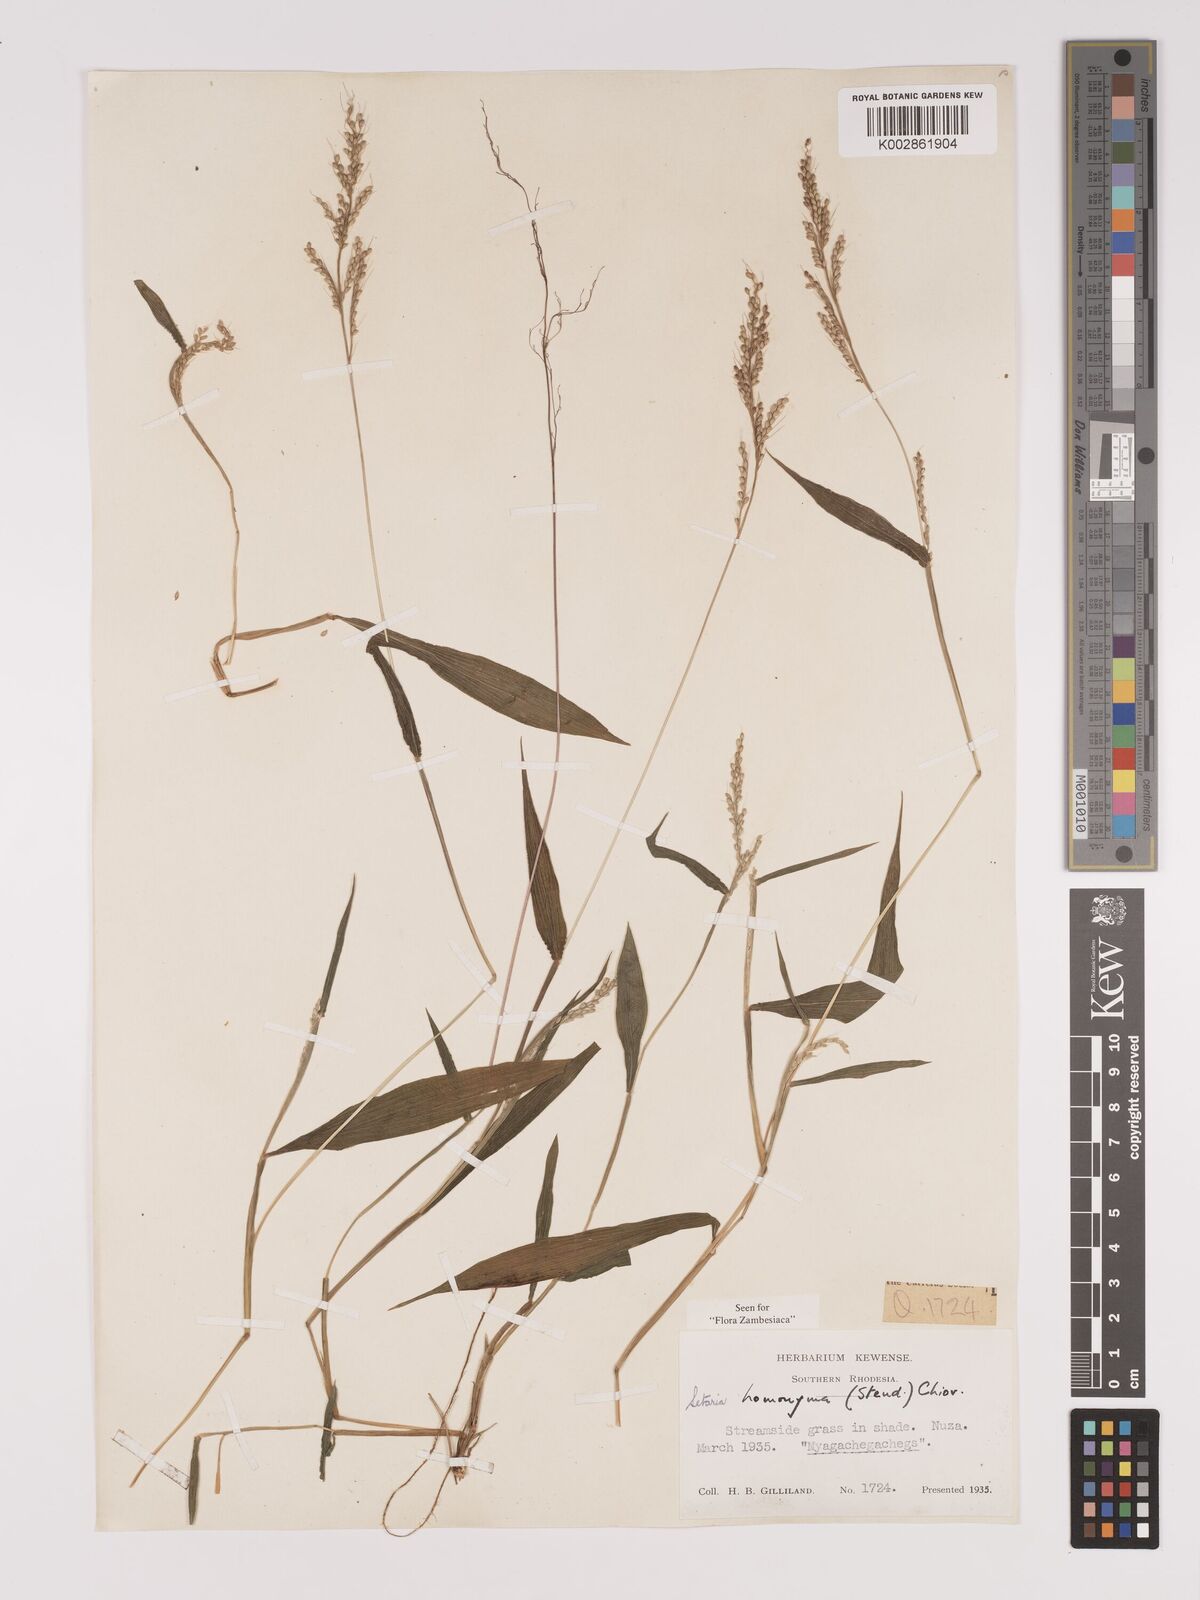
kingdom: Plantae
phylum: Tracheophyta
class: Liliopsida
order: Poales
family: Poaceae
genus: Setaria
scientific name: Setaria homonyma
